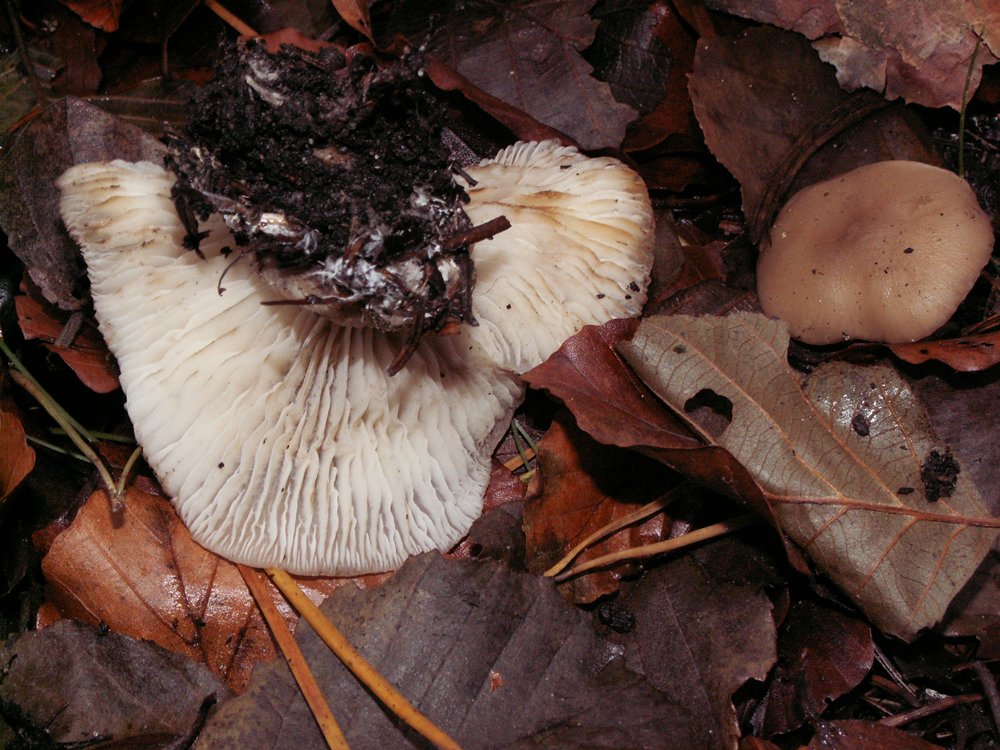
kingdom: Fungi
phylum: Basidiomycota
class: Agaricomycetes
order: Agaricales
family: Lyophyllaceae
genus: Lyophyllum
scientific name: Lyophyllum deliberatum
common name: gråbrun gråblad
